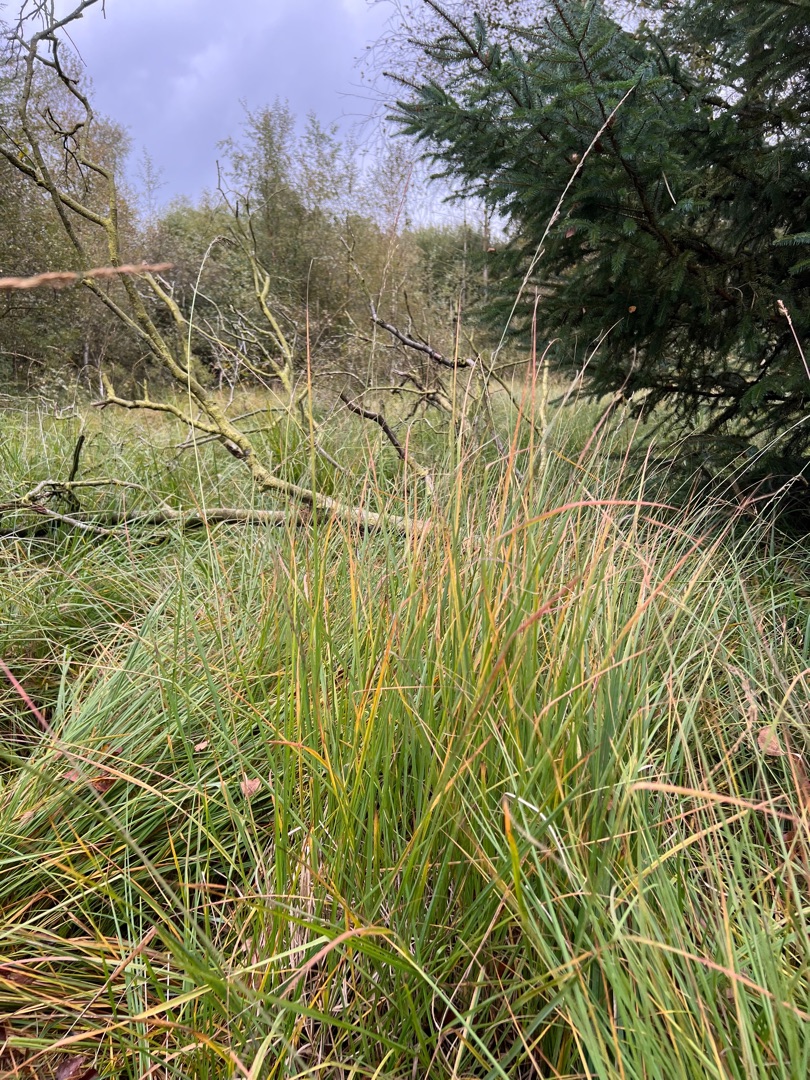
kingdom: Plantae
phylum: Tracheophyta
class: Liliopsida
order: Poales
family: Poaceae
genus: Molinia
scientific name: Molinia caerulea
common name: Blåtop
